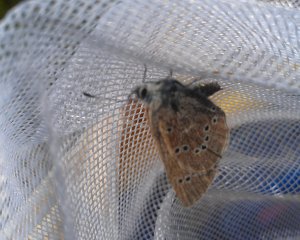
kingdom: Animalia
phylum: Arthropoda
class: Insecta
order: Lepidoptera
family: Lycaenidae
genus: Glaucopsyche
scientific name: Glaucopsyche lygdamus
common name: Silvery Blue
